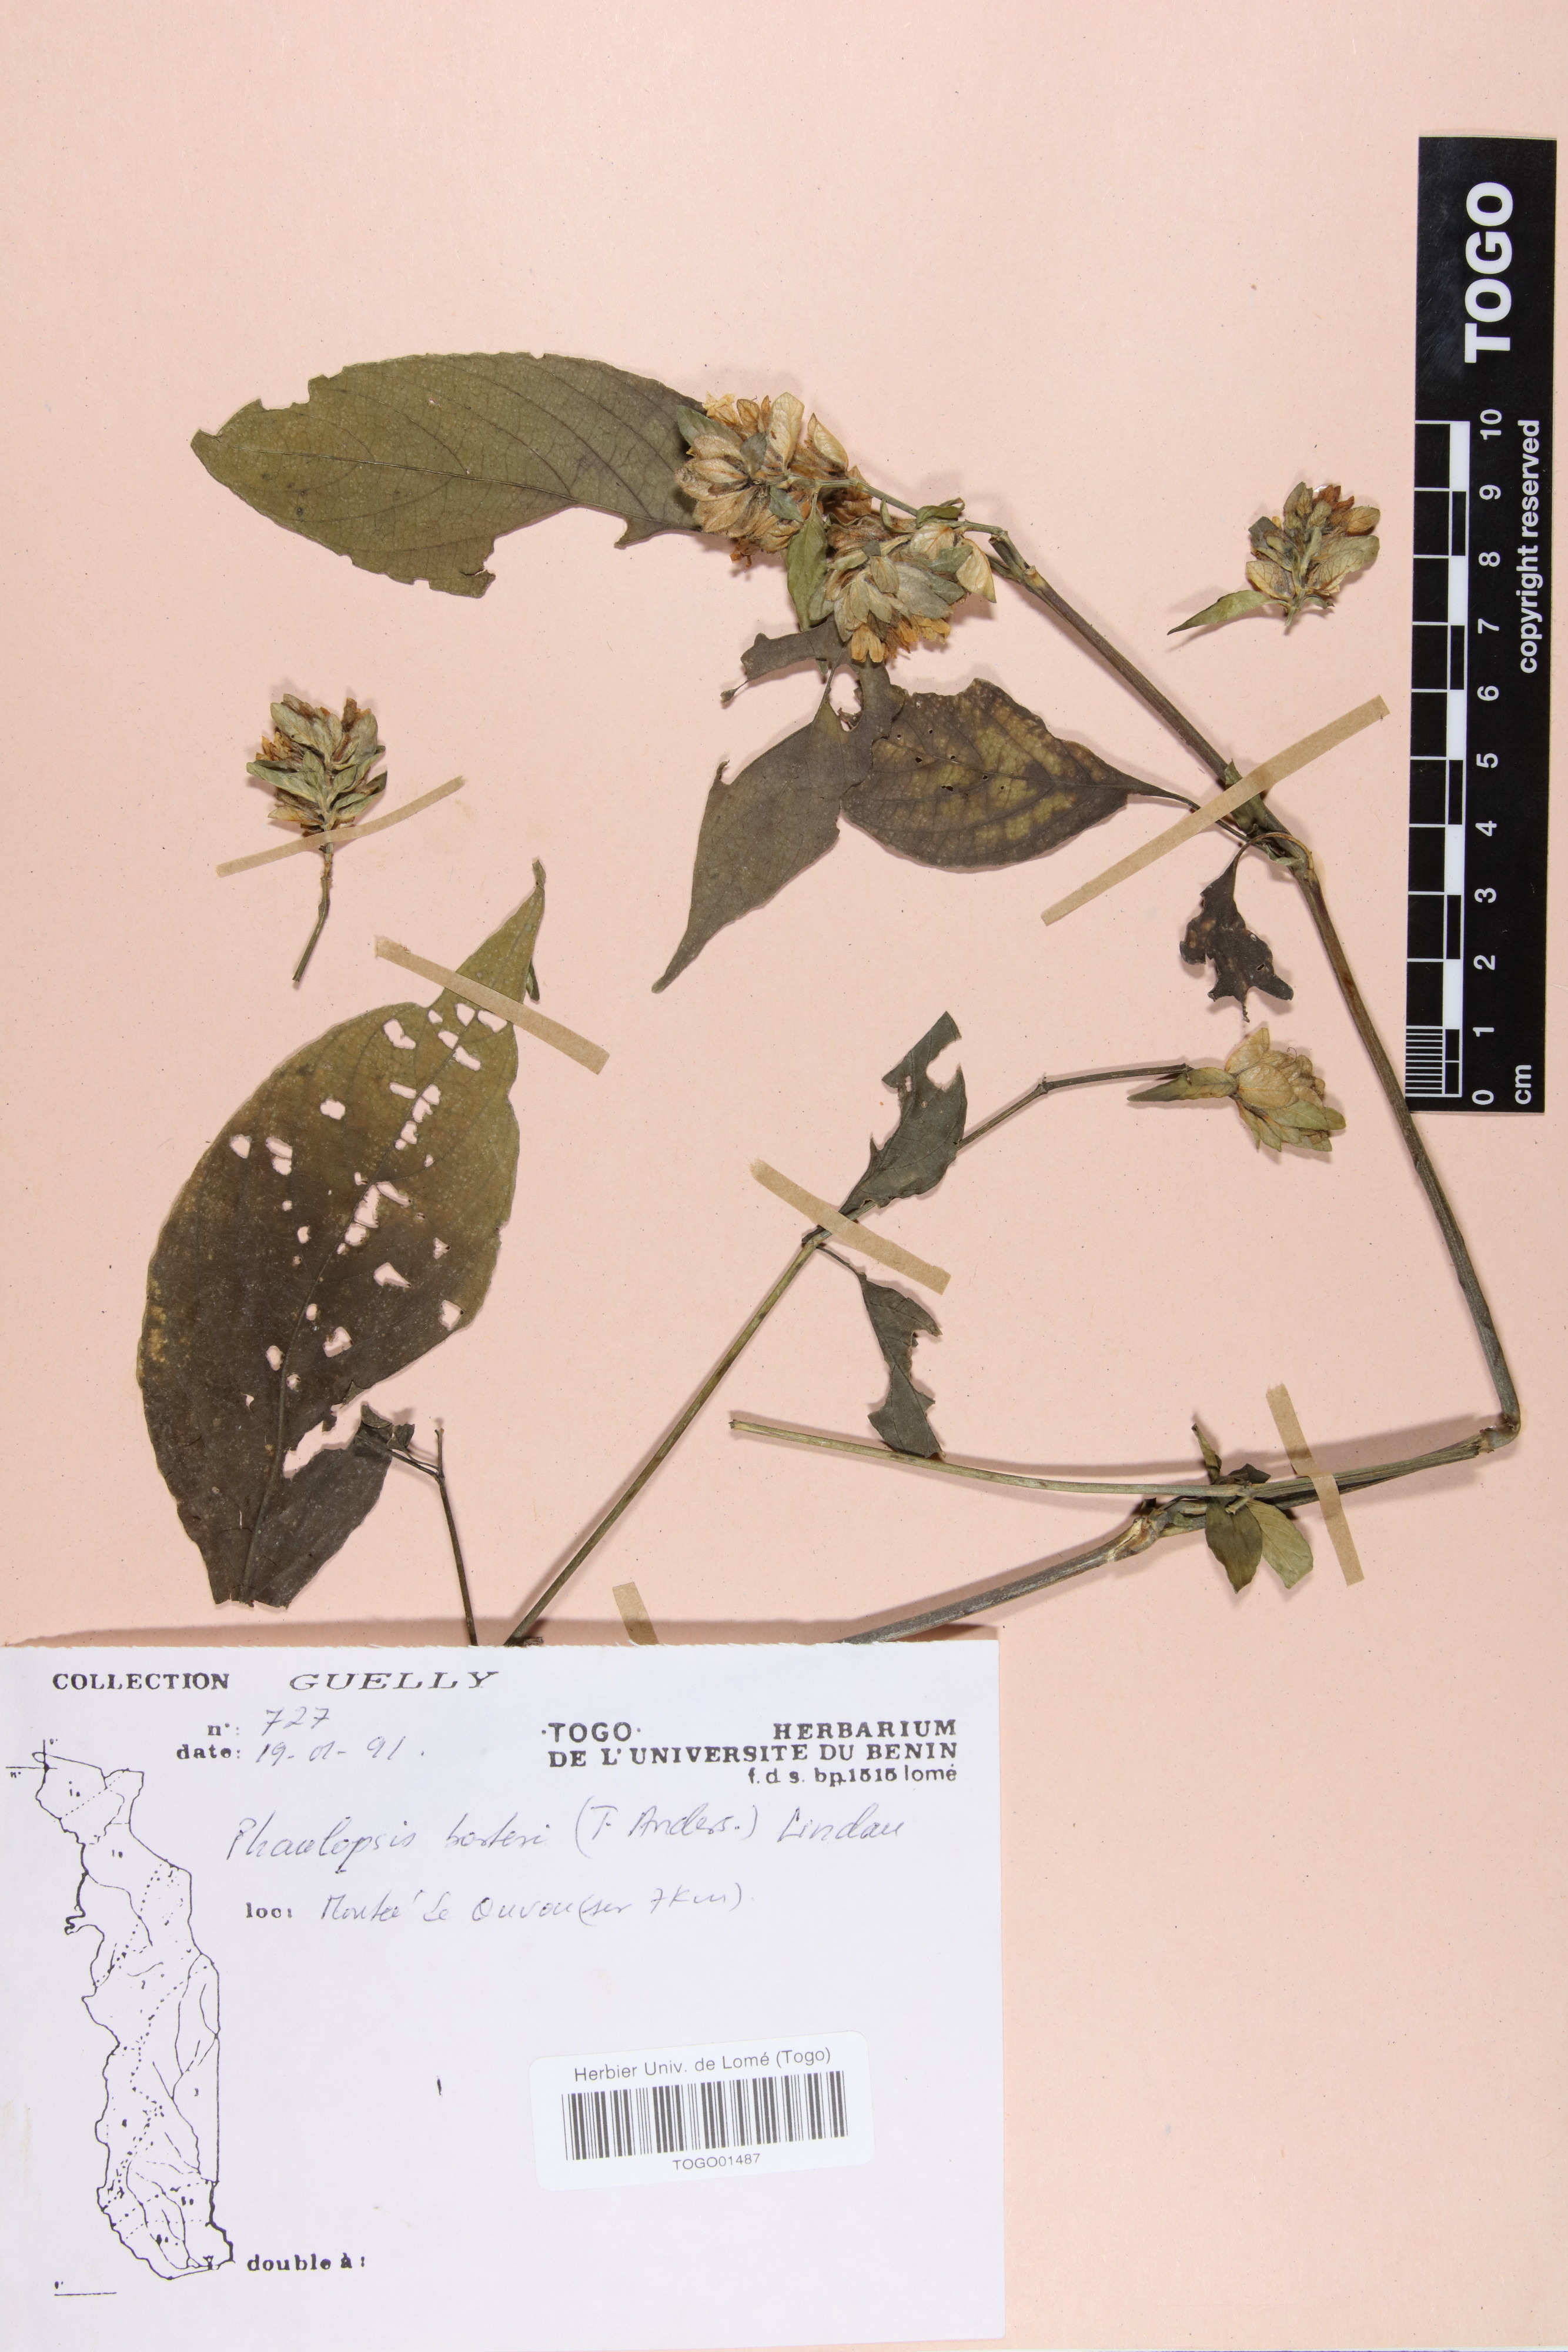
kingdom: Plantae
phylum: Tracheophyta
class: Magnoliopsida
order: Lamiales
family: Acanthaceae
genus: Phaulopsis
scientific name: Phaulopsis barteri
